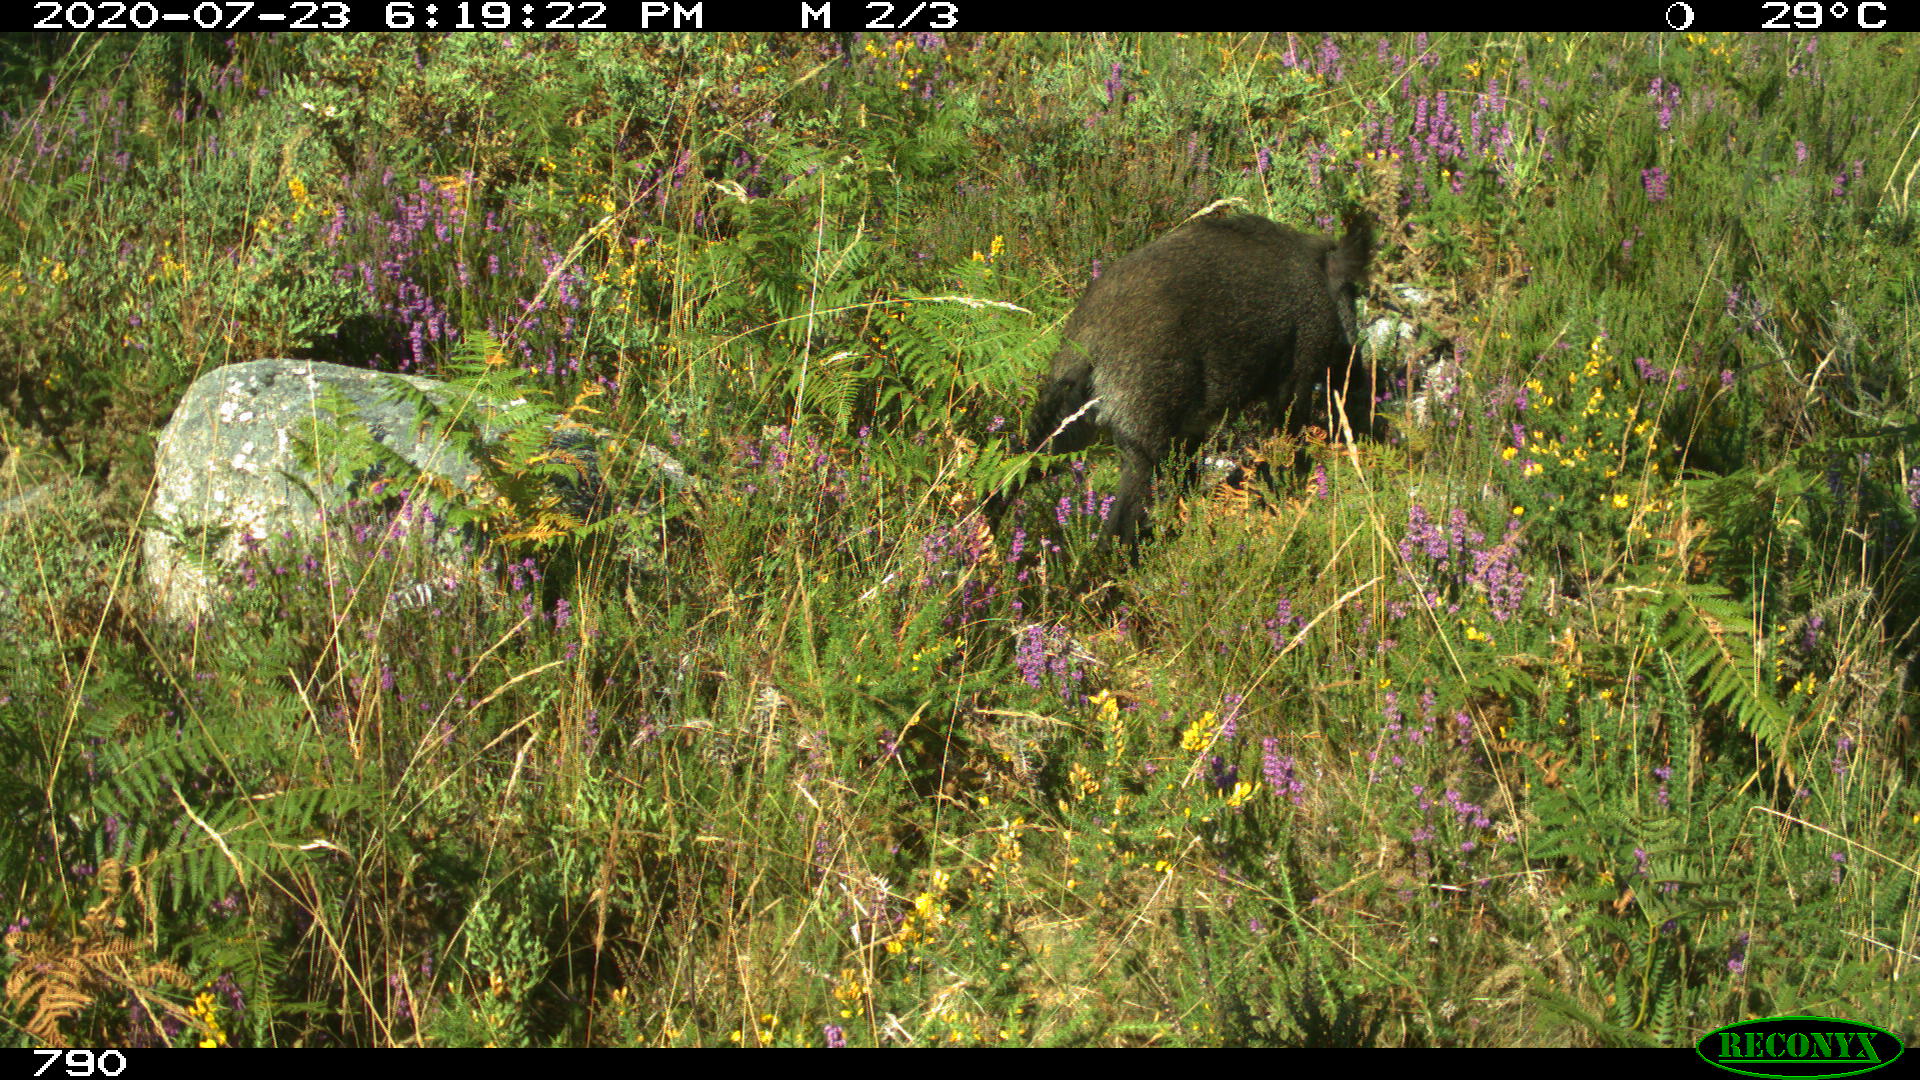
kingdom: Animalia
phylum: Chordata
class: Mammalia
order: Artiodactyla
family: Suidae
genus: Sus
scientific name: Sus scrofa
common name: Wild boar
